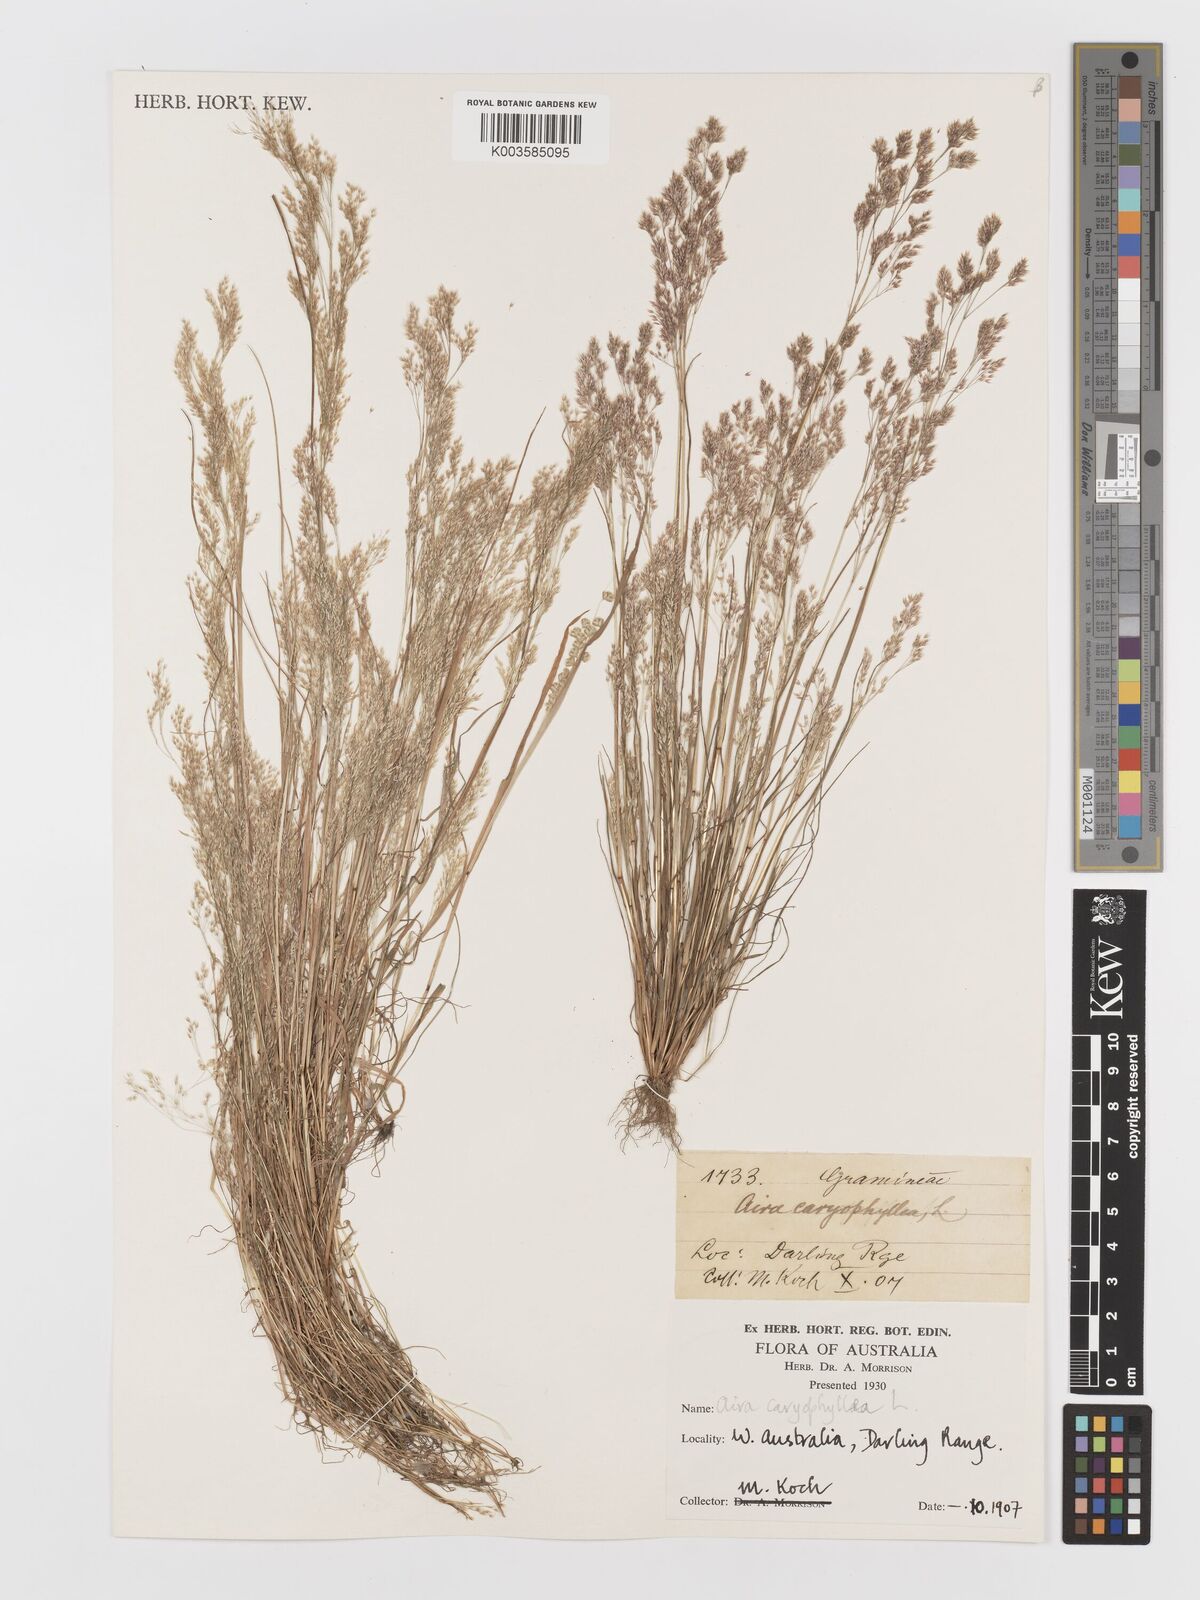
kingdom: Plantae
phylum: Tracheophyta
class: Liliopsida
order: Poales
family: Poaceae
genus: Aira
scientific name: Aira caryophyllea
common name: Silver hairgrass
